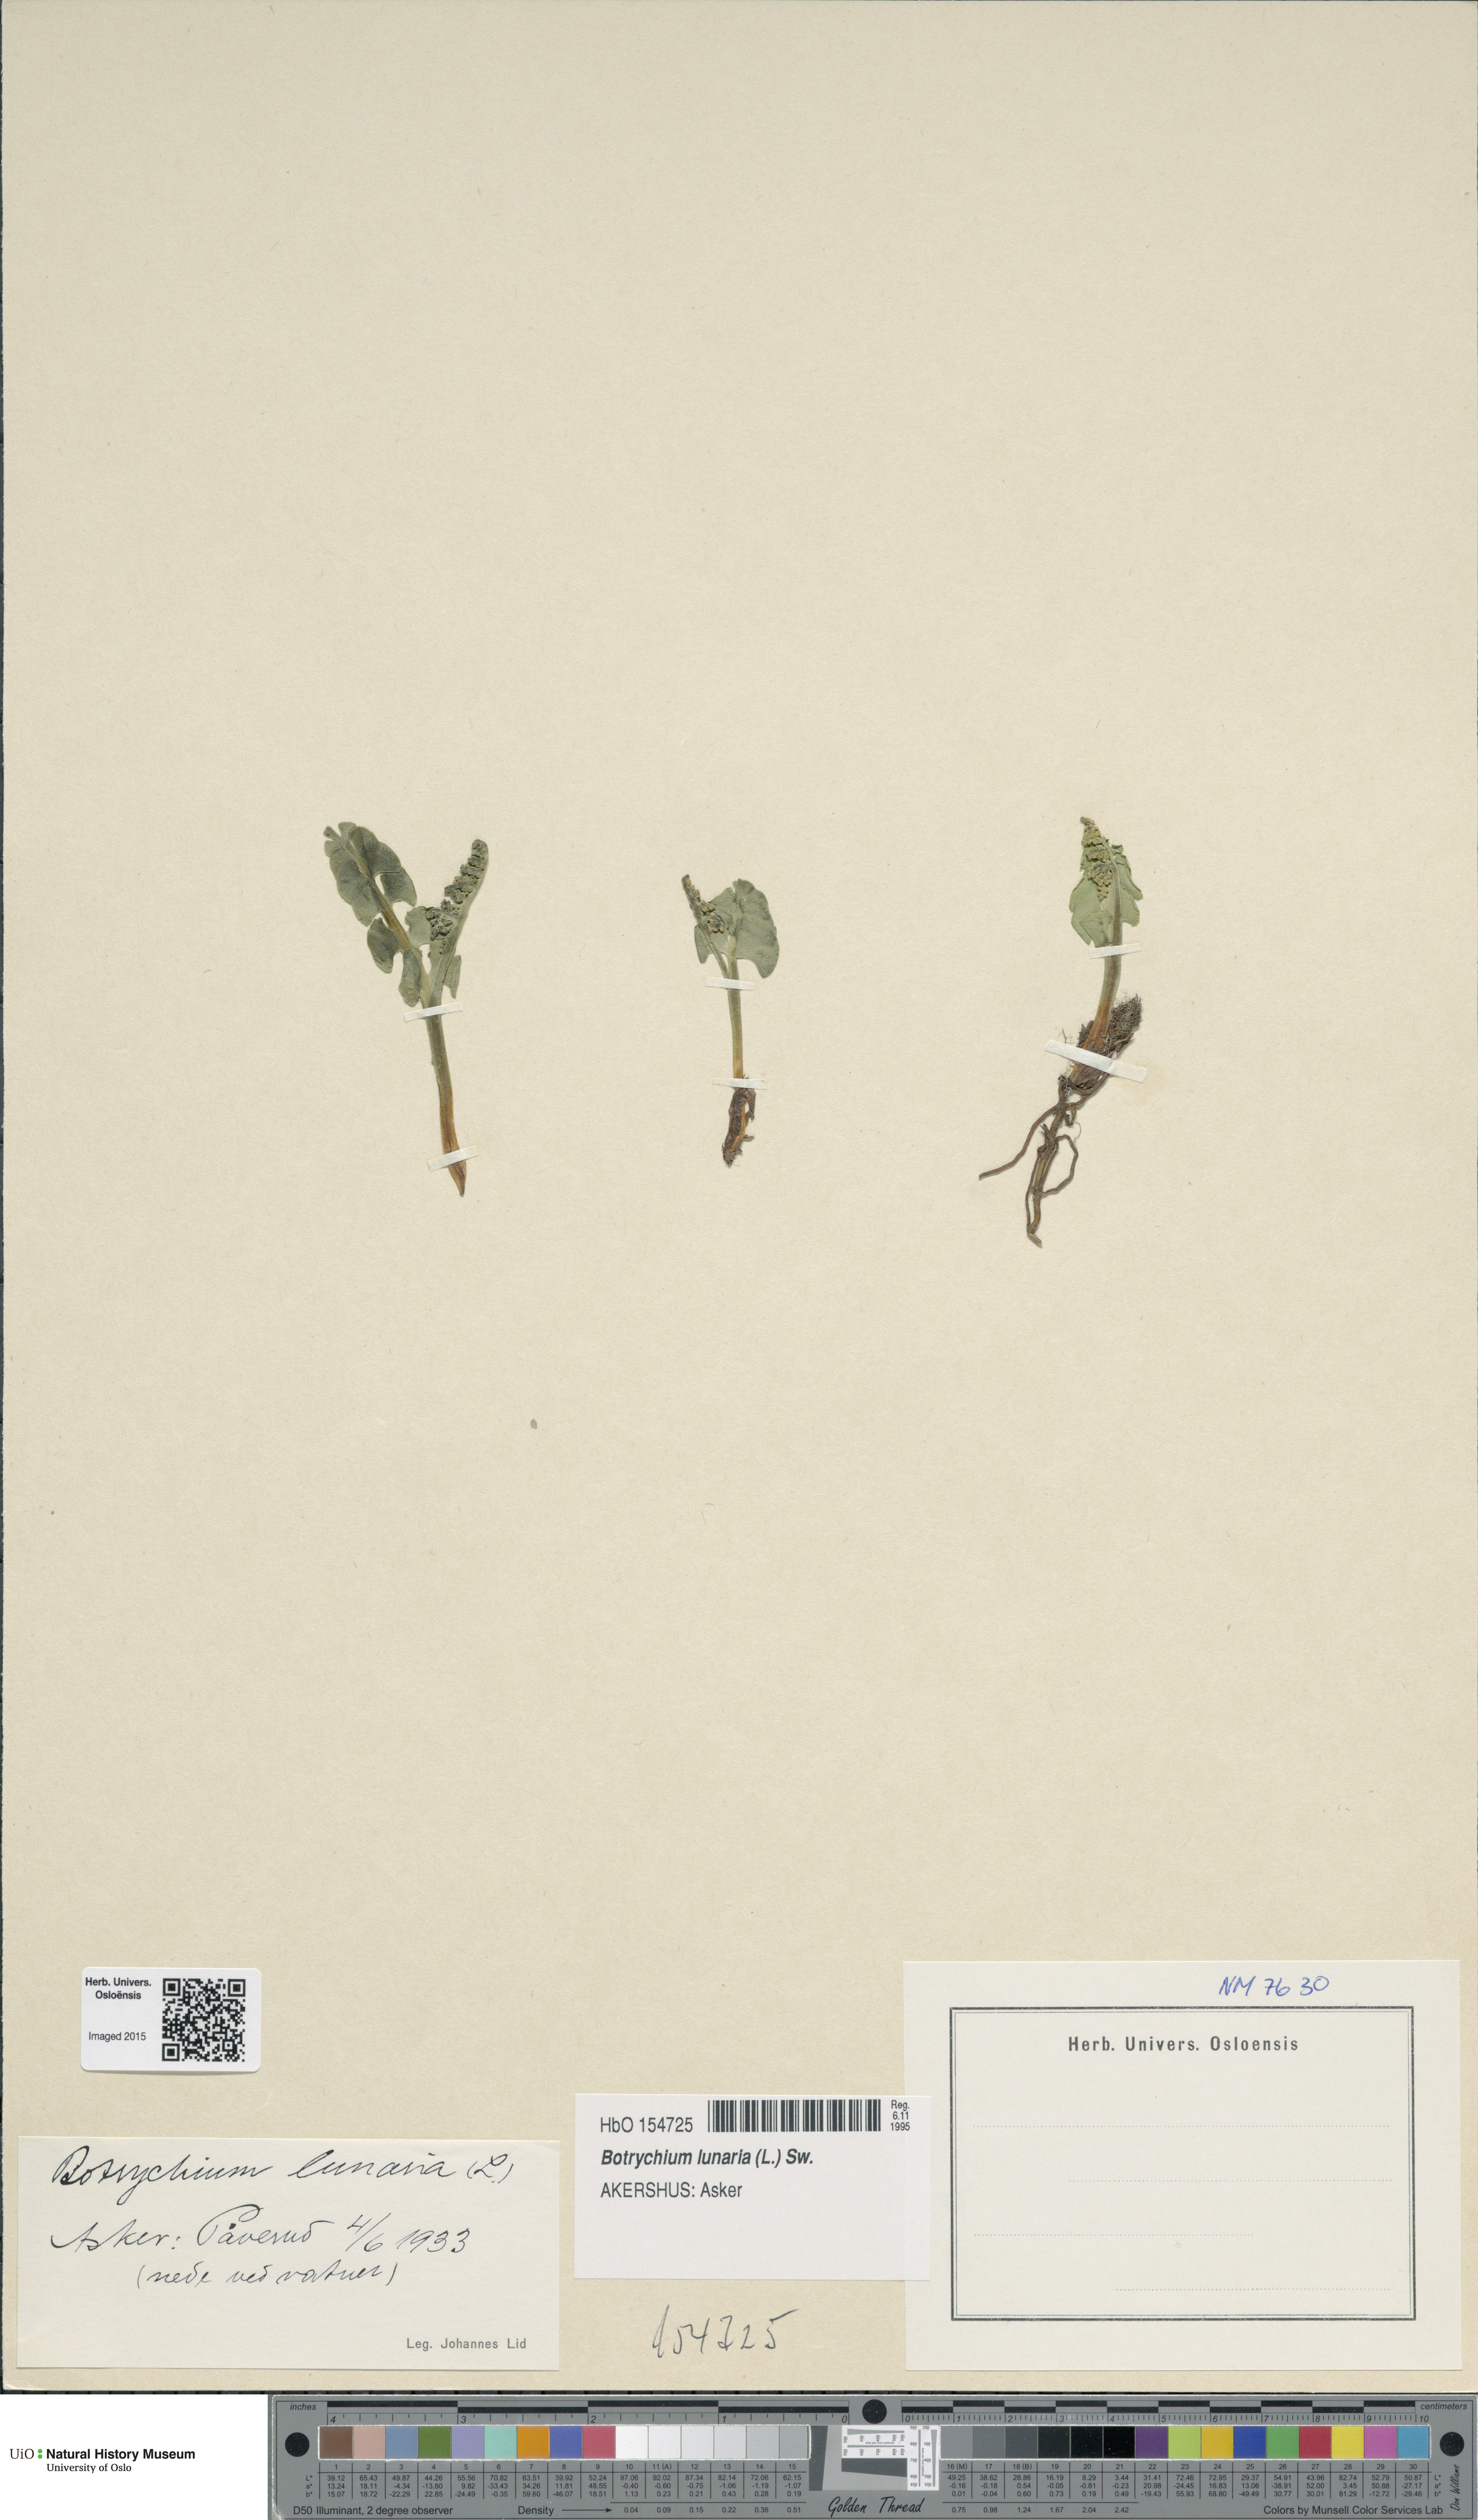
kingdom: Plantae
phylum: Tracheophyta
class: Polypodiopsida
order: Ophioglossales
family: Ophioglossaceae
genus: Botrychium
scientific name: Botrychium lunaria
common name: Moonwort
